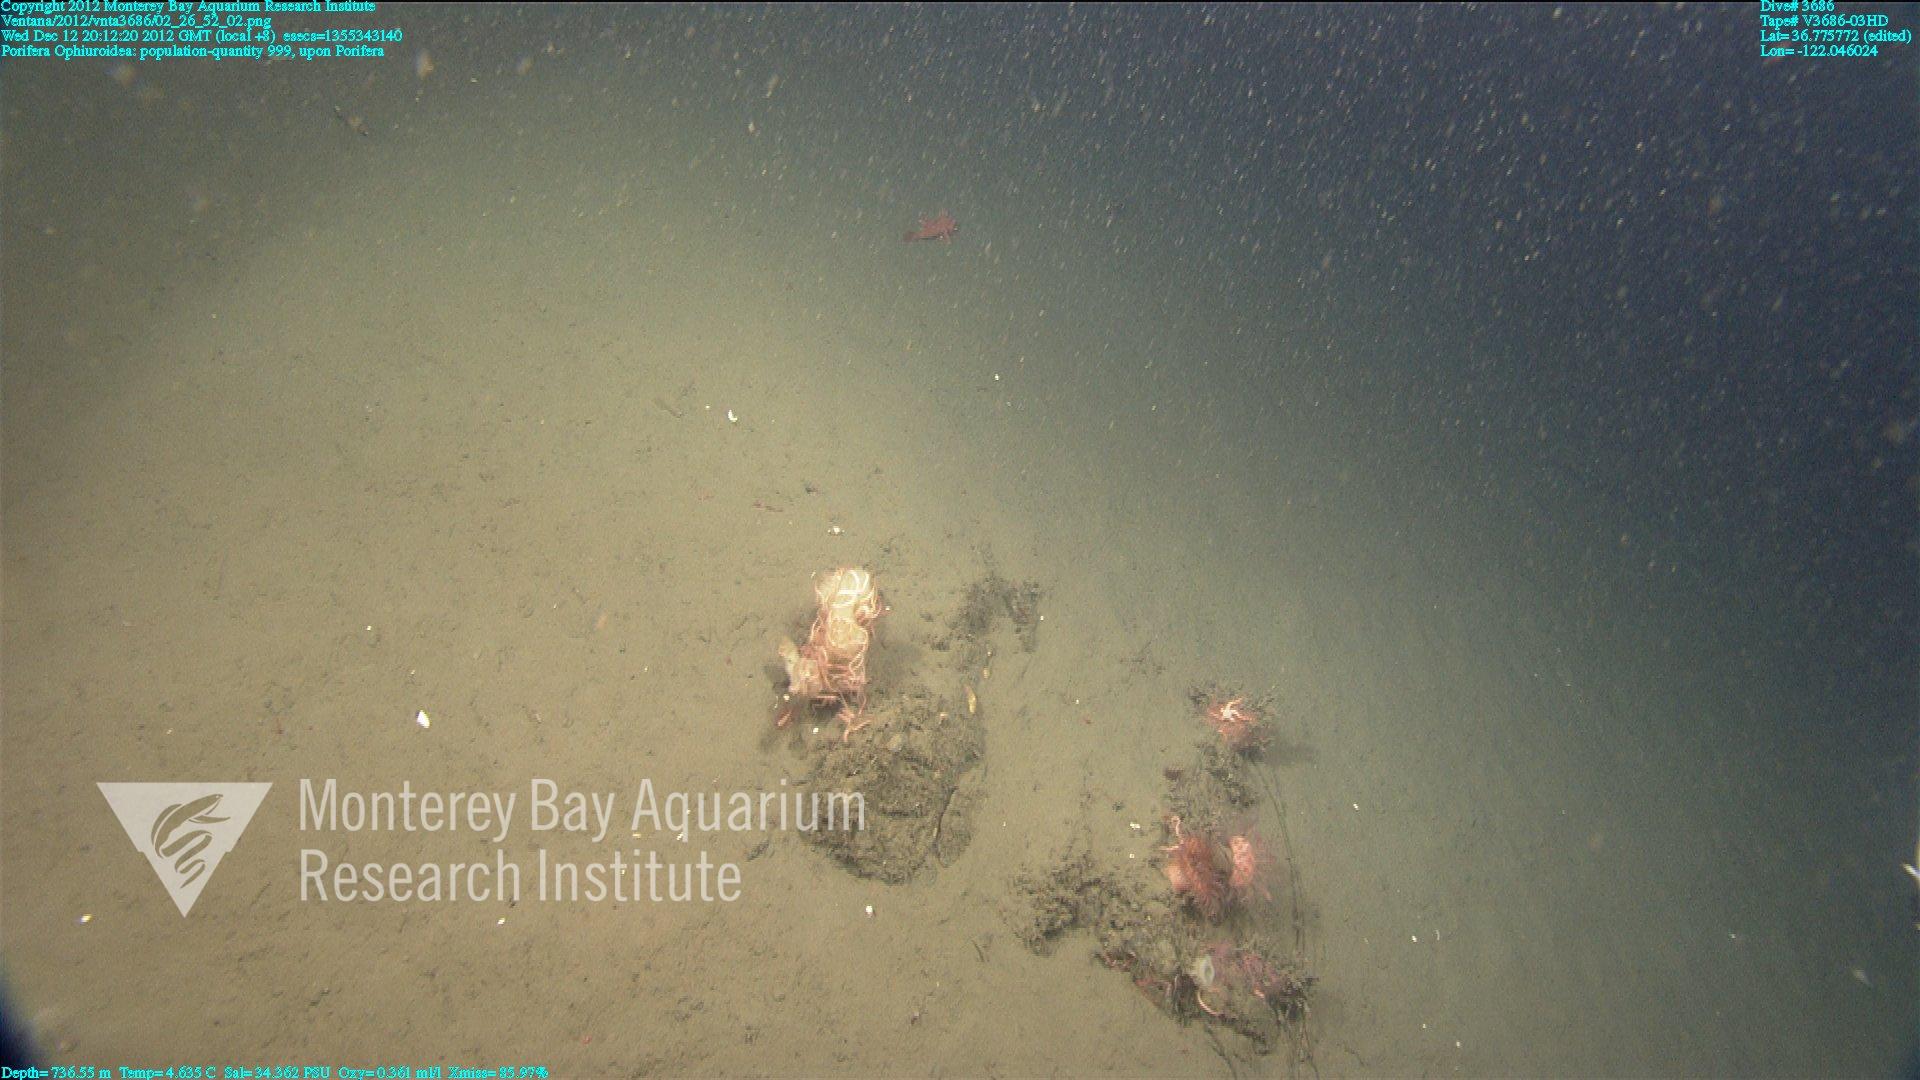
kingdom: Animalia
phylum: Porifera
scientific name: Porifera
